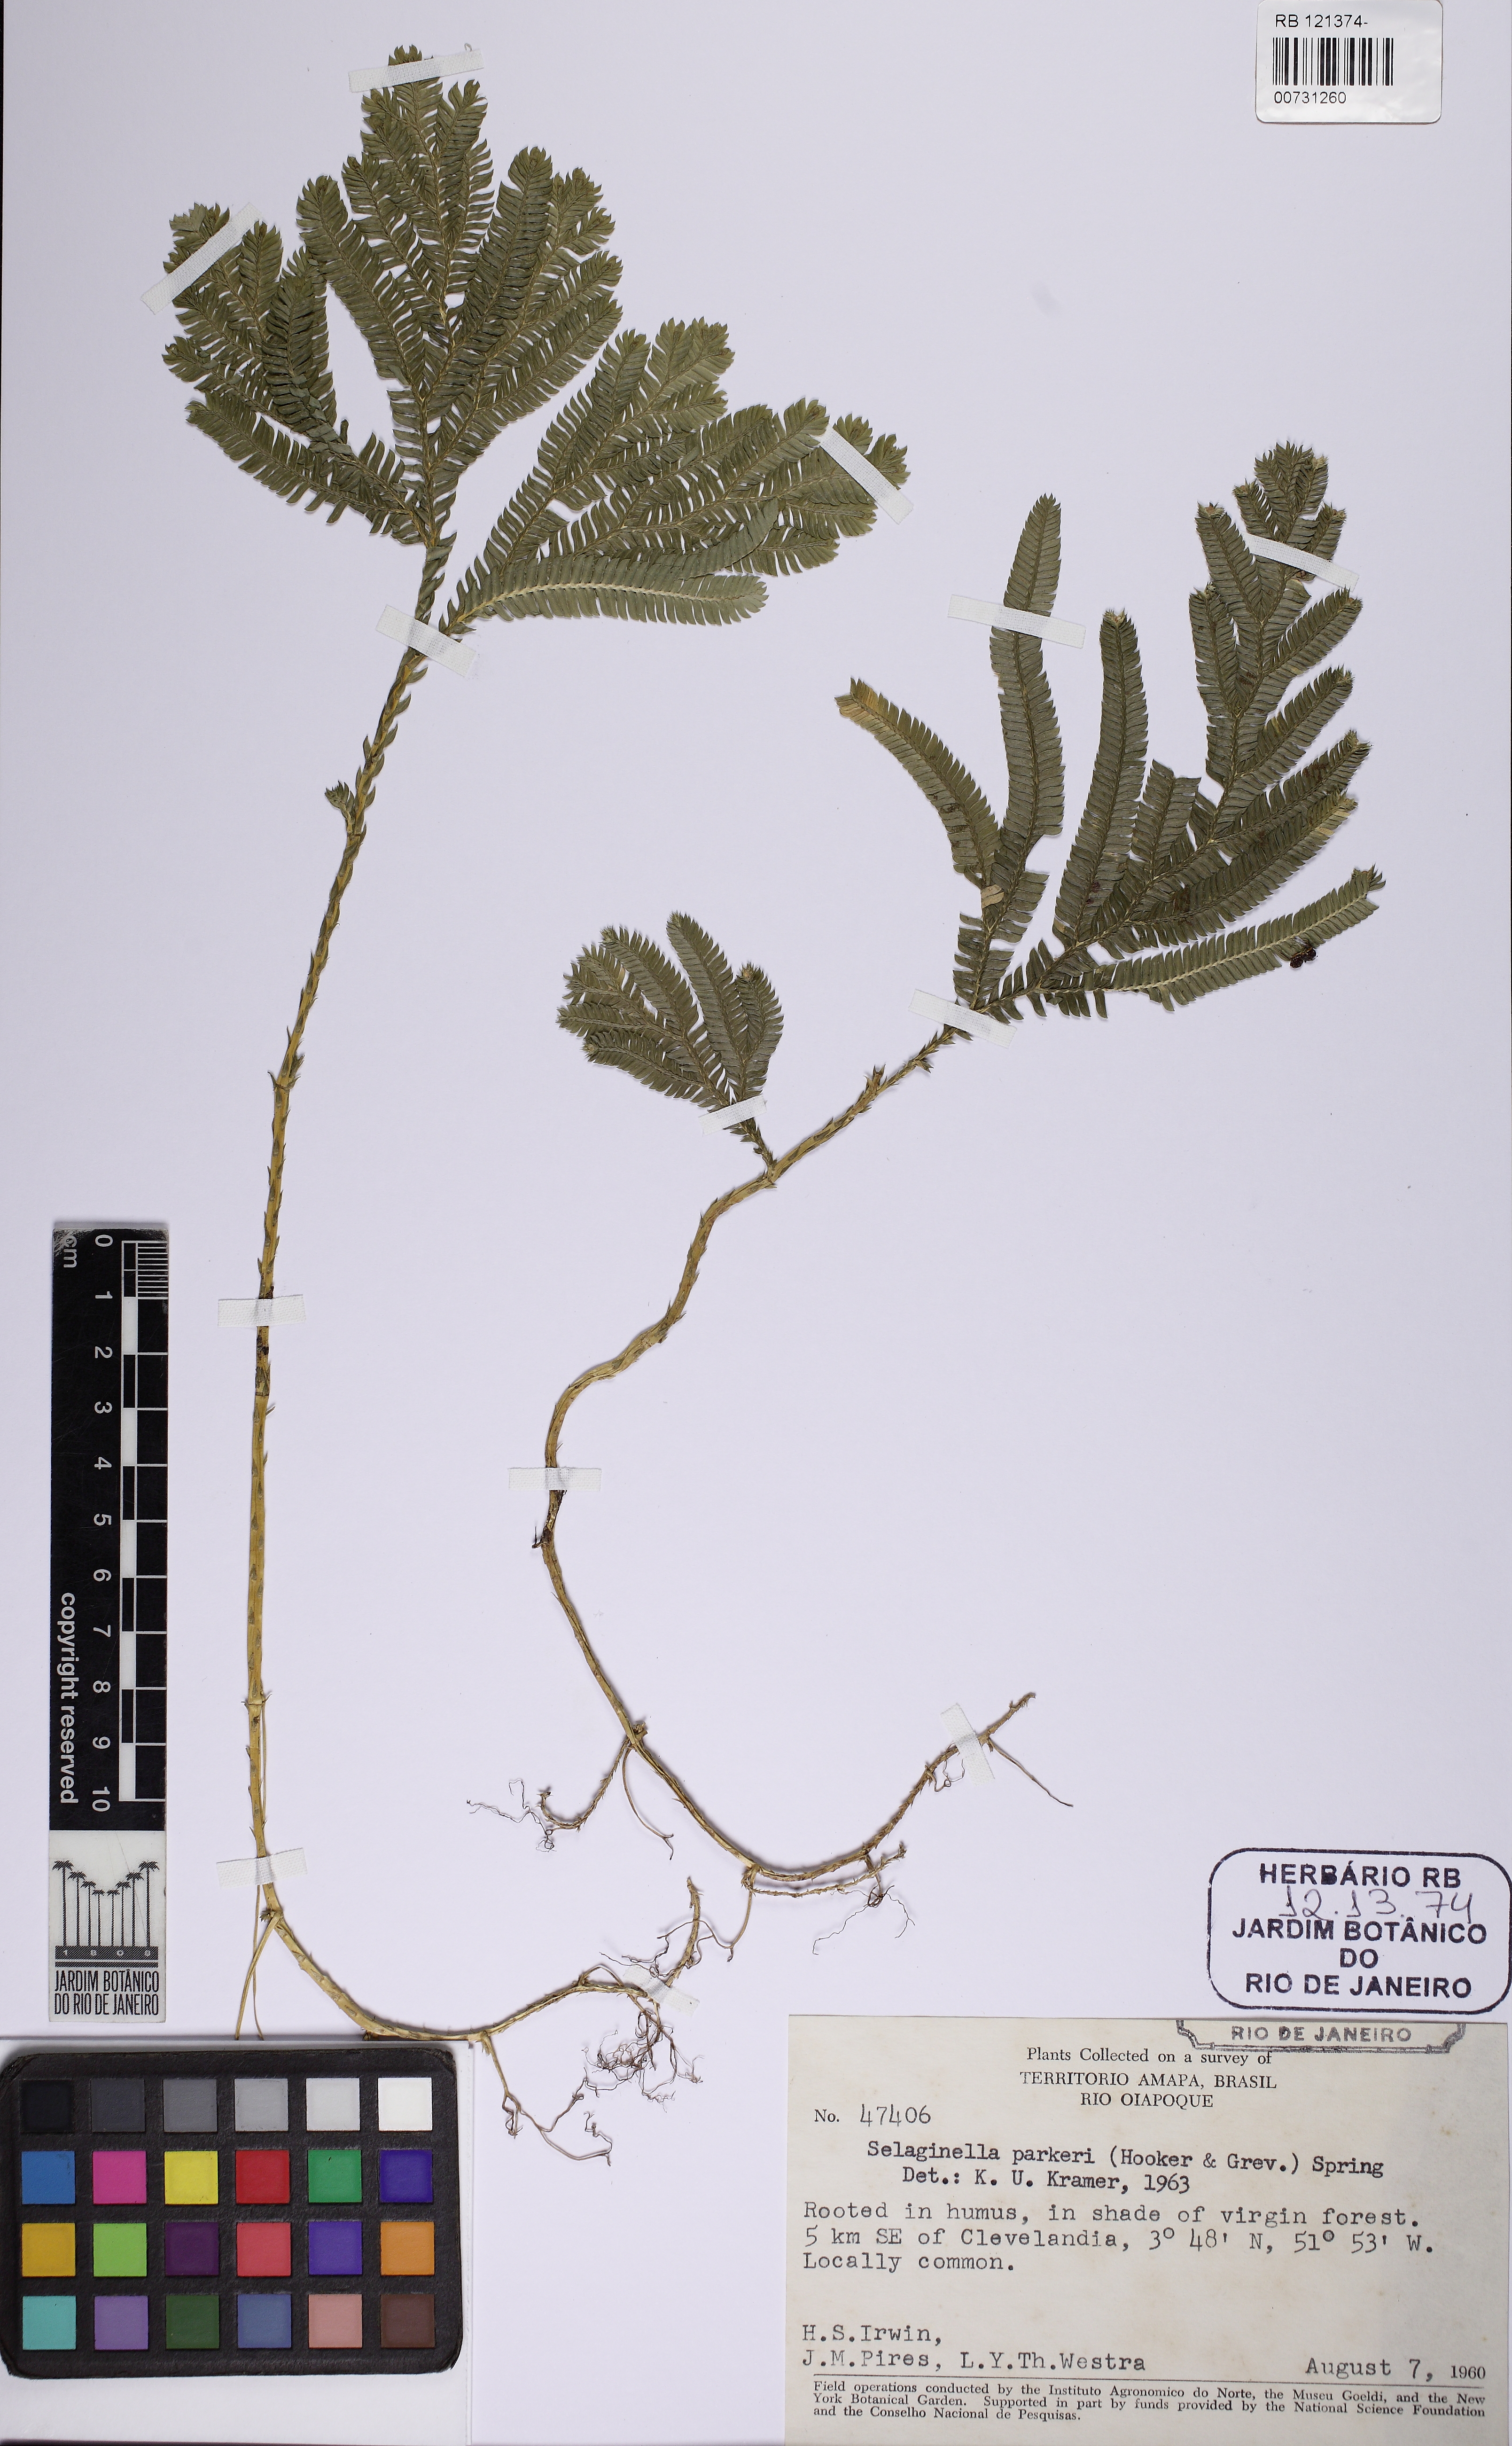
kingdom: Plantae
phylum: Tracheophyta
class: Lycopodiopsida
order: Selaginellales
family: Selaginellaceae
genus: Selaginella
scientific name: Selaginella parkeri
